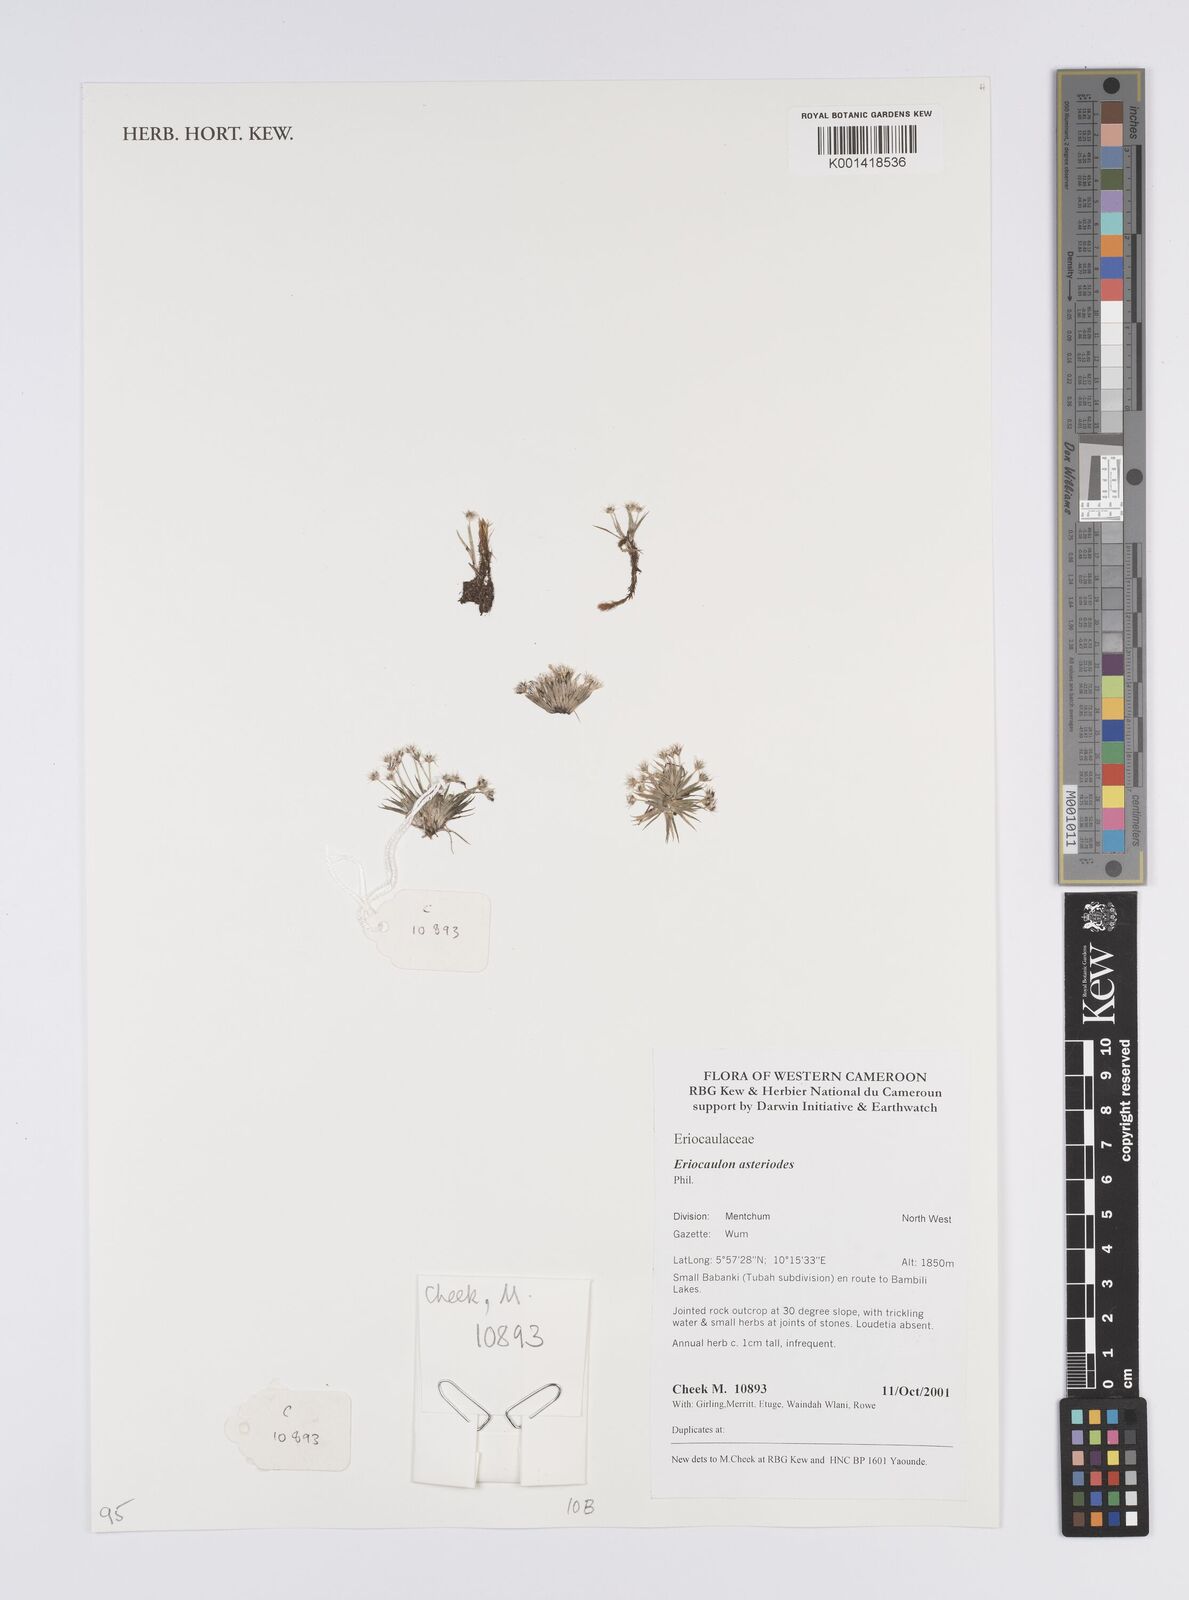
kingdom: Plantae
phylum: Tracheophyta
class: Liliopsida
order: Poales
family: Eriocaulaceae
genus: Eriocaulon
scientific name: Eriocaulon asteroides
